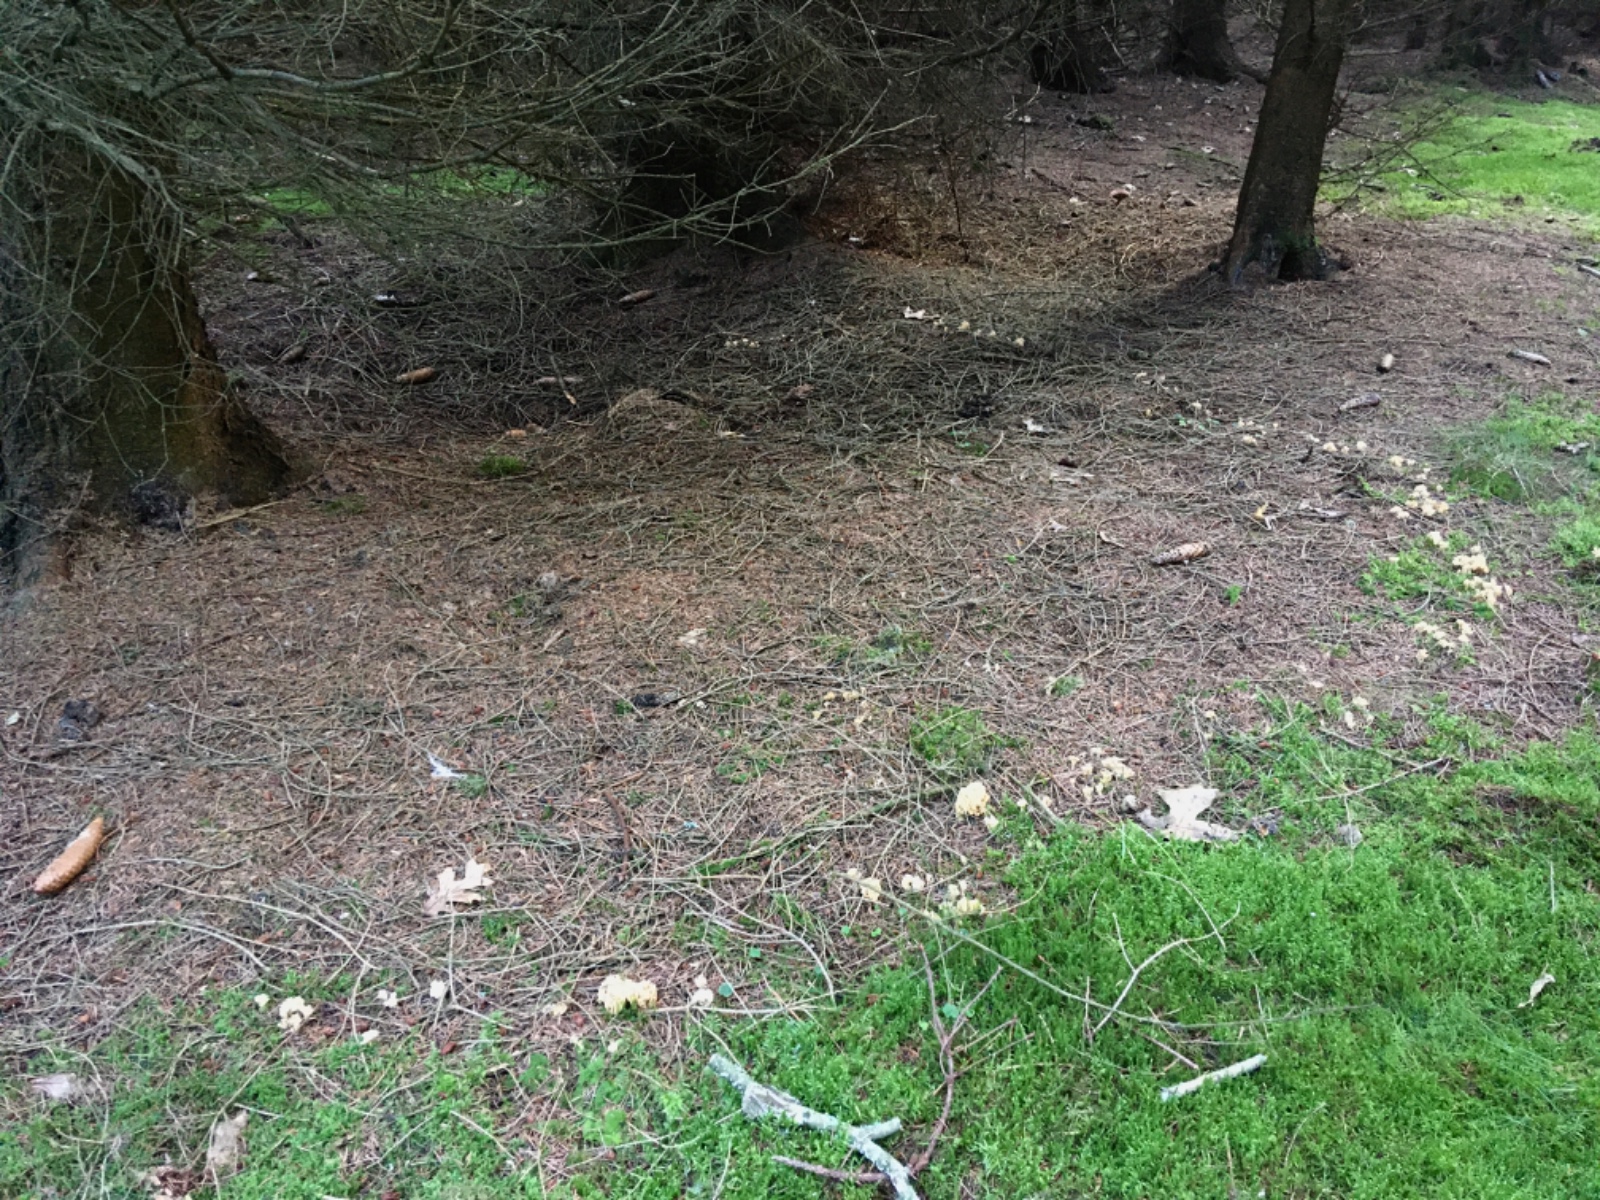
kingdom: Fungi
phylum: Basidiomycota
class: Agaricomycetes
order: Gomphales
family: Gomphaceae
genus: Phaeoclavulina
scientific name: Phaeoclavulina eumorpha
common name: gran-koralsvamp
